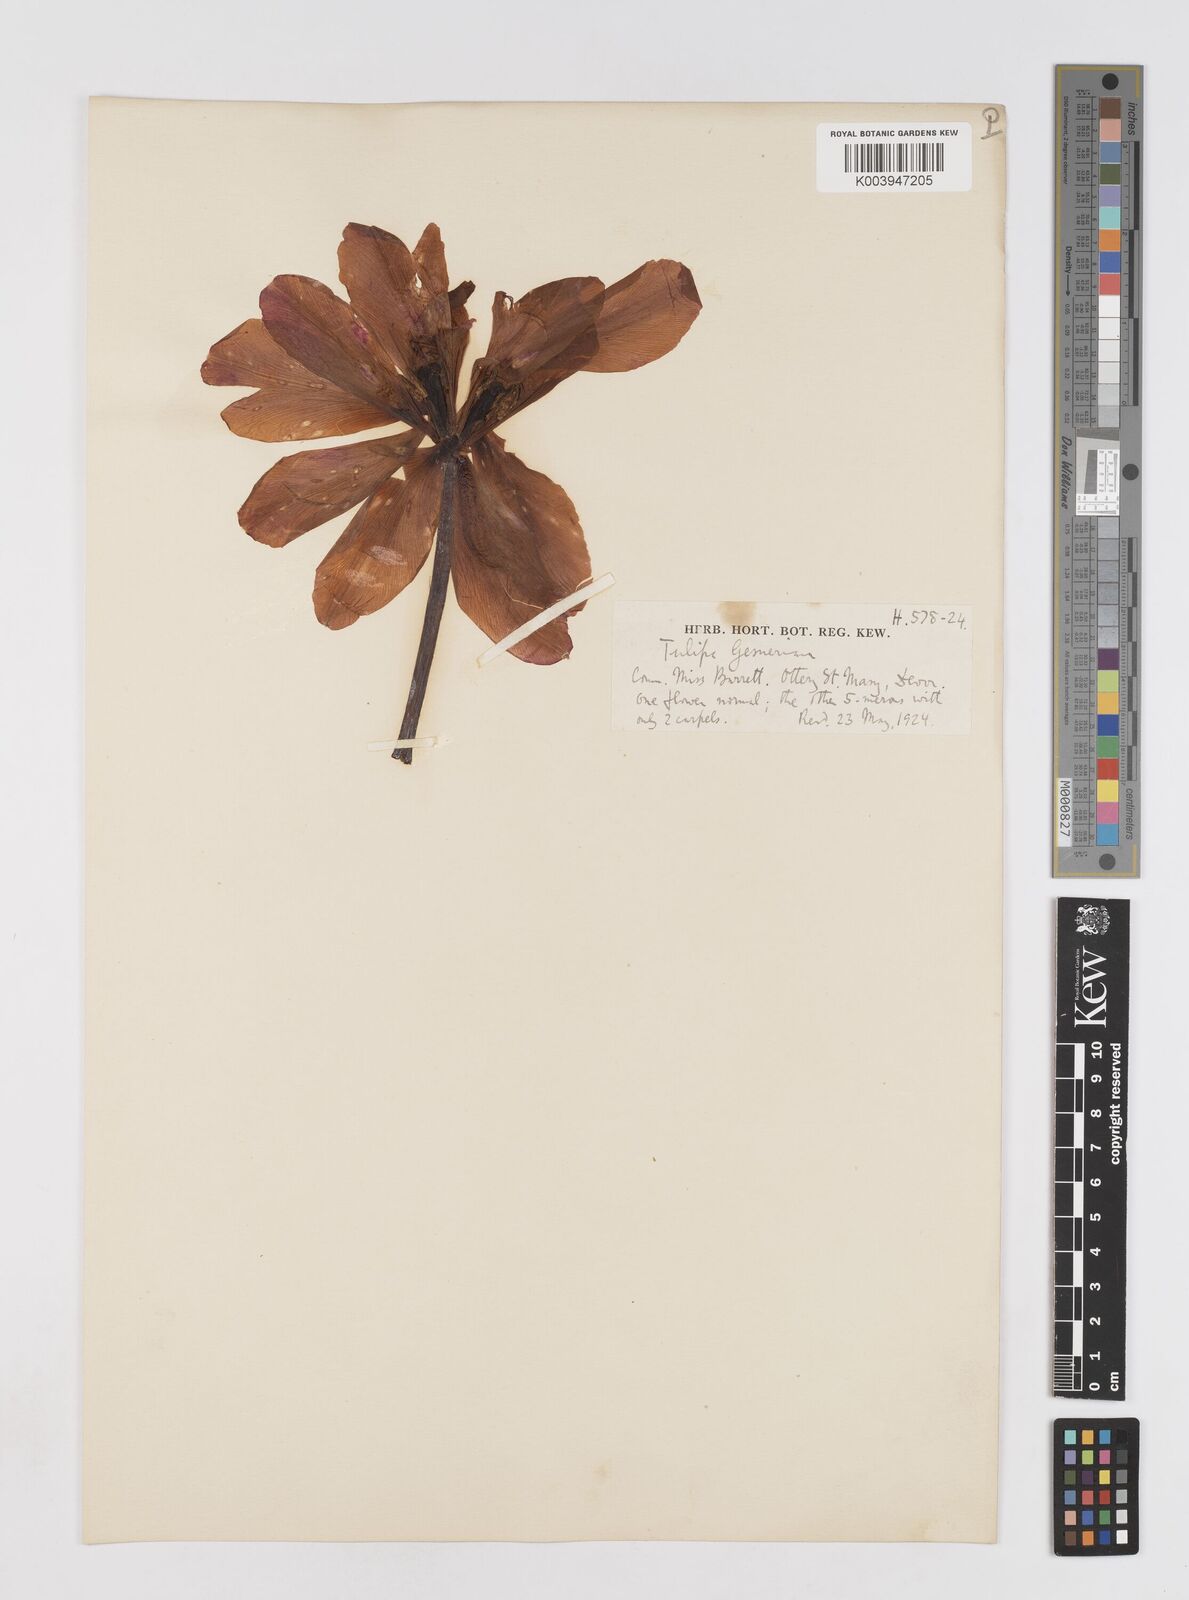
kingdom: Plantae
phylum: Tracheophyta
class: Liliopsida
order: Liliales
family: Liliaceae
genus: Tulipa
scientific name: Tulipa gesneriana
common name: Garden tulip
